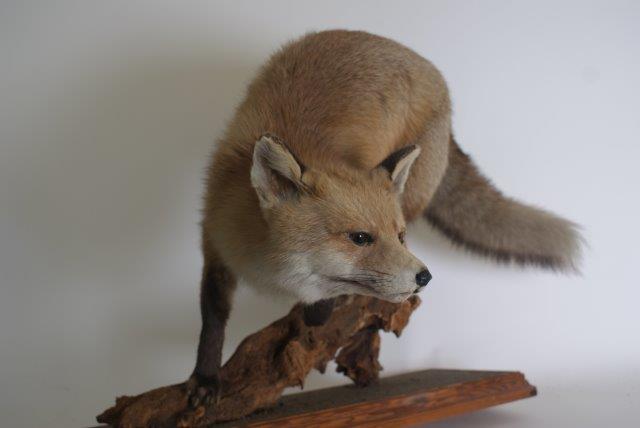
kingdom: Animalia
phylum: Chordata
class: Mammalia
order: Carnivora
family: Canidae
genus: Vulpes
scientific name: Vulpes vulpes
